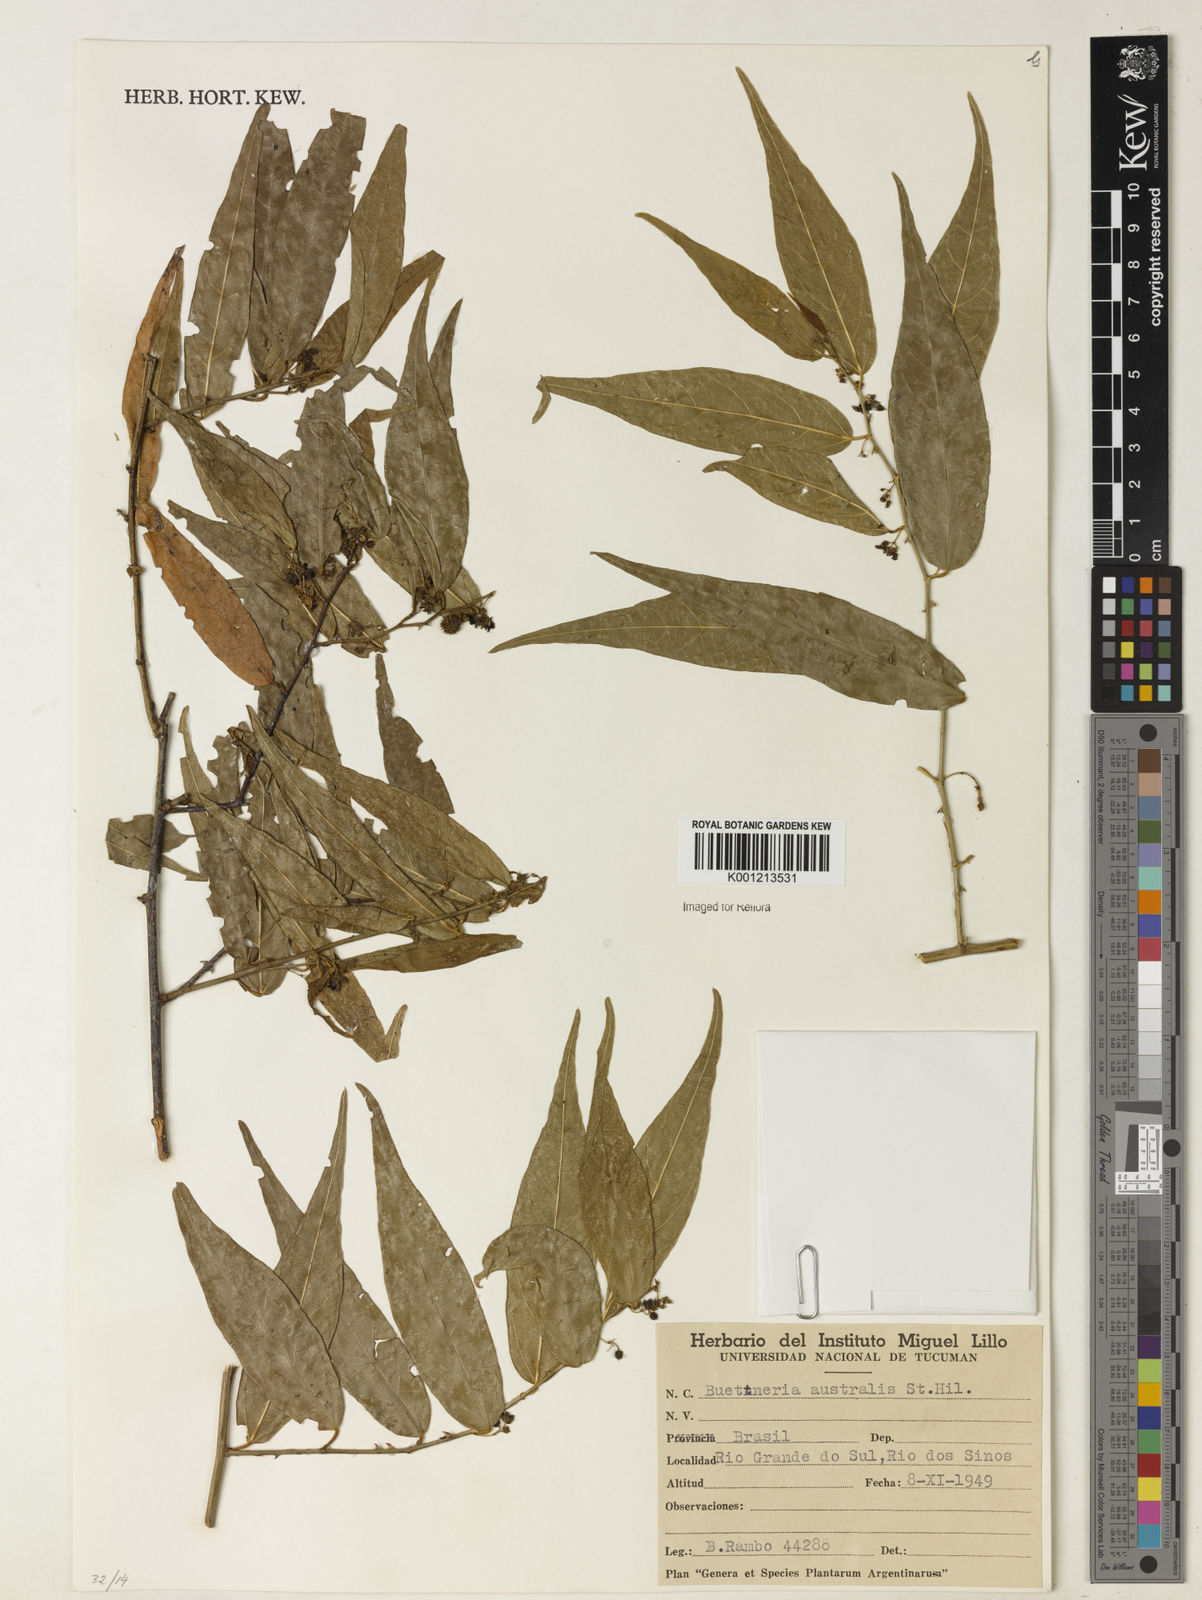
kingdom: Plantae
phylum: Tracheophyta
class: Magnoliopsida
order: Malvales
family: Malvaceae
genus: Byttneria
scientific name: Byttneria australis
